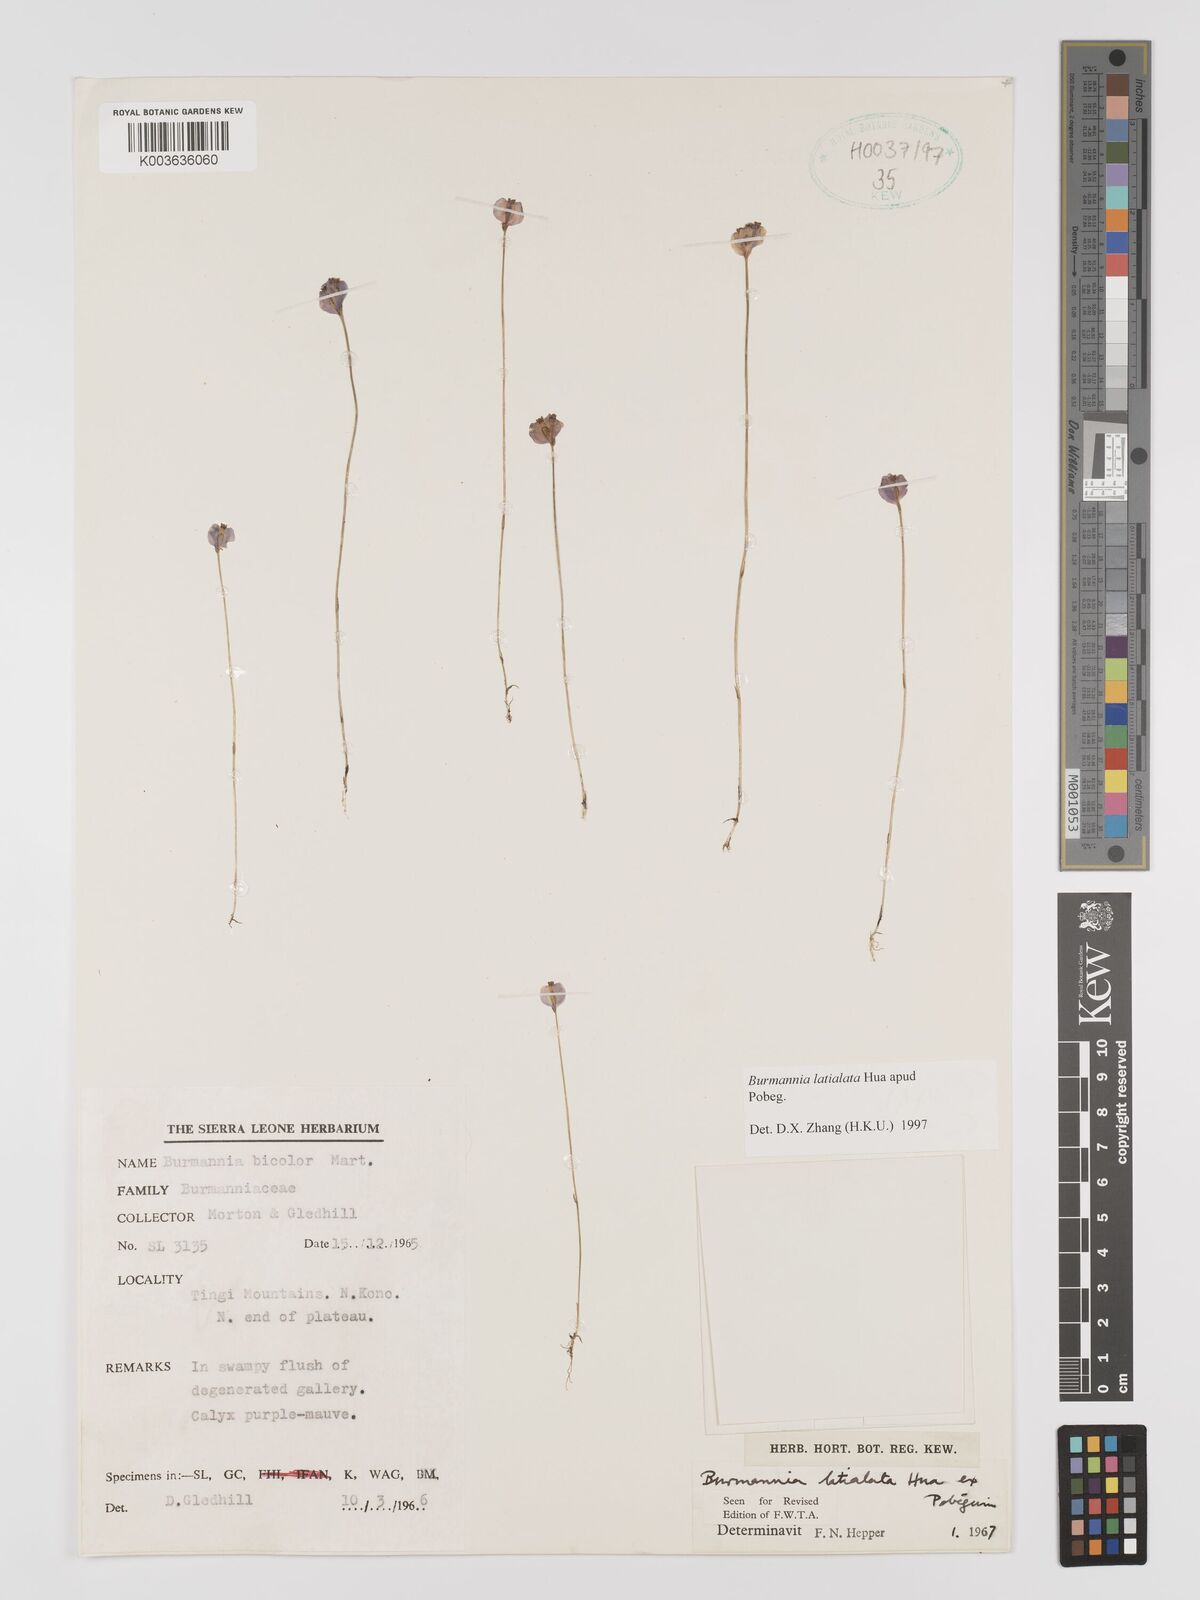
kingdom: Plantae
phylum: Tracheophyta
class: Liliopsida
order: Dioscoreales
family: Burmanniaceae
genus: Burmannia
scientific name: Burmannia madagascariensis
